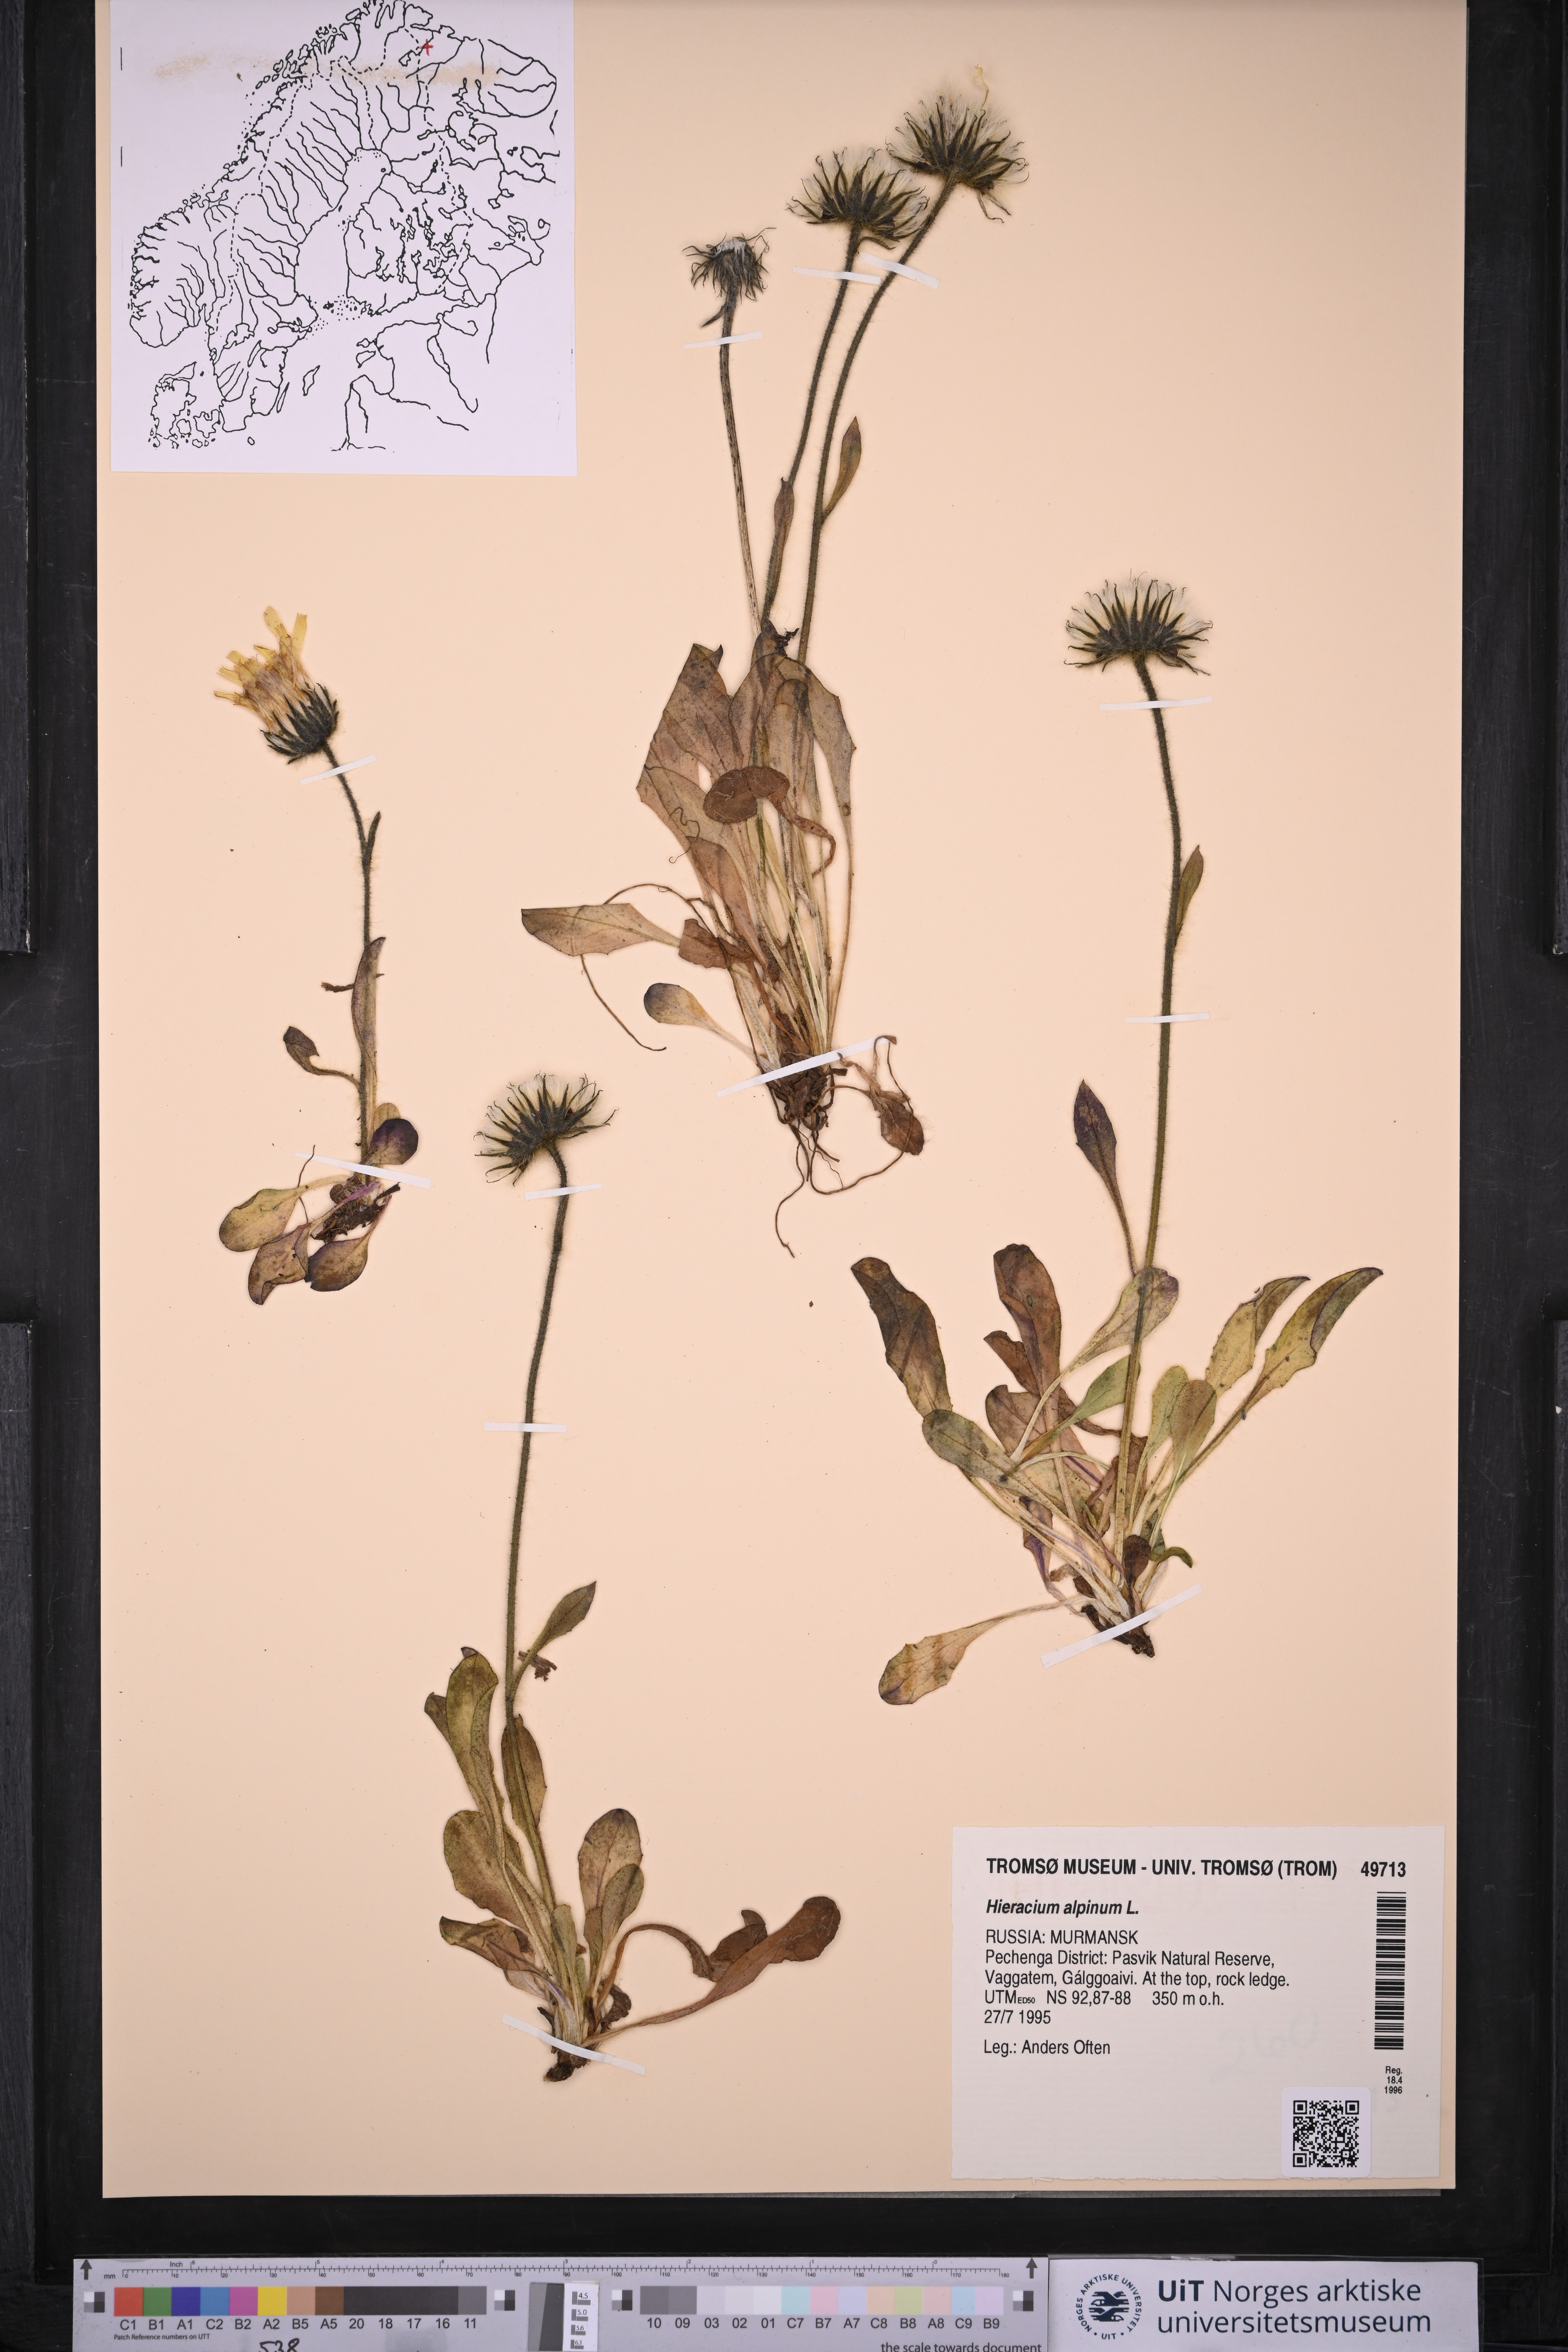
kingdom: Plantae
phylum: Tracheophyta
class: Magnoliopsida
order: Asterales
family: Asteraceae
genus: Hieracium
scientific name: Hieracium alpinum
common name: Alpine hawkweed
